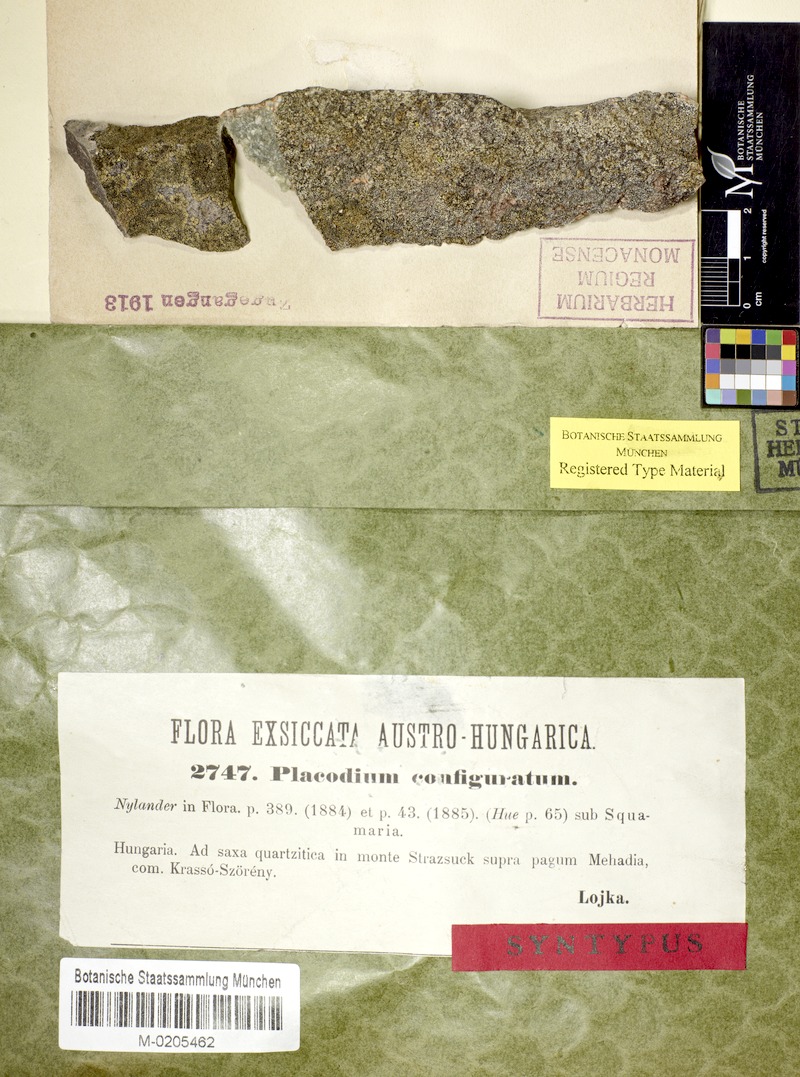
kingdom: Fungi
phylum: Ascomycota
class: Lecanoromycetes
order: Lecanorales
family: Lecanoraceae
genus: Lecanora
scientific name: Lecanora configurata
